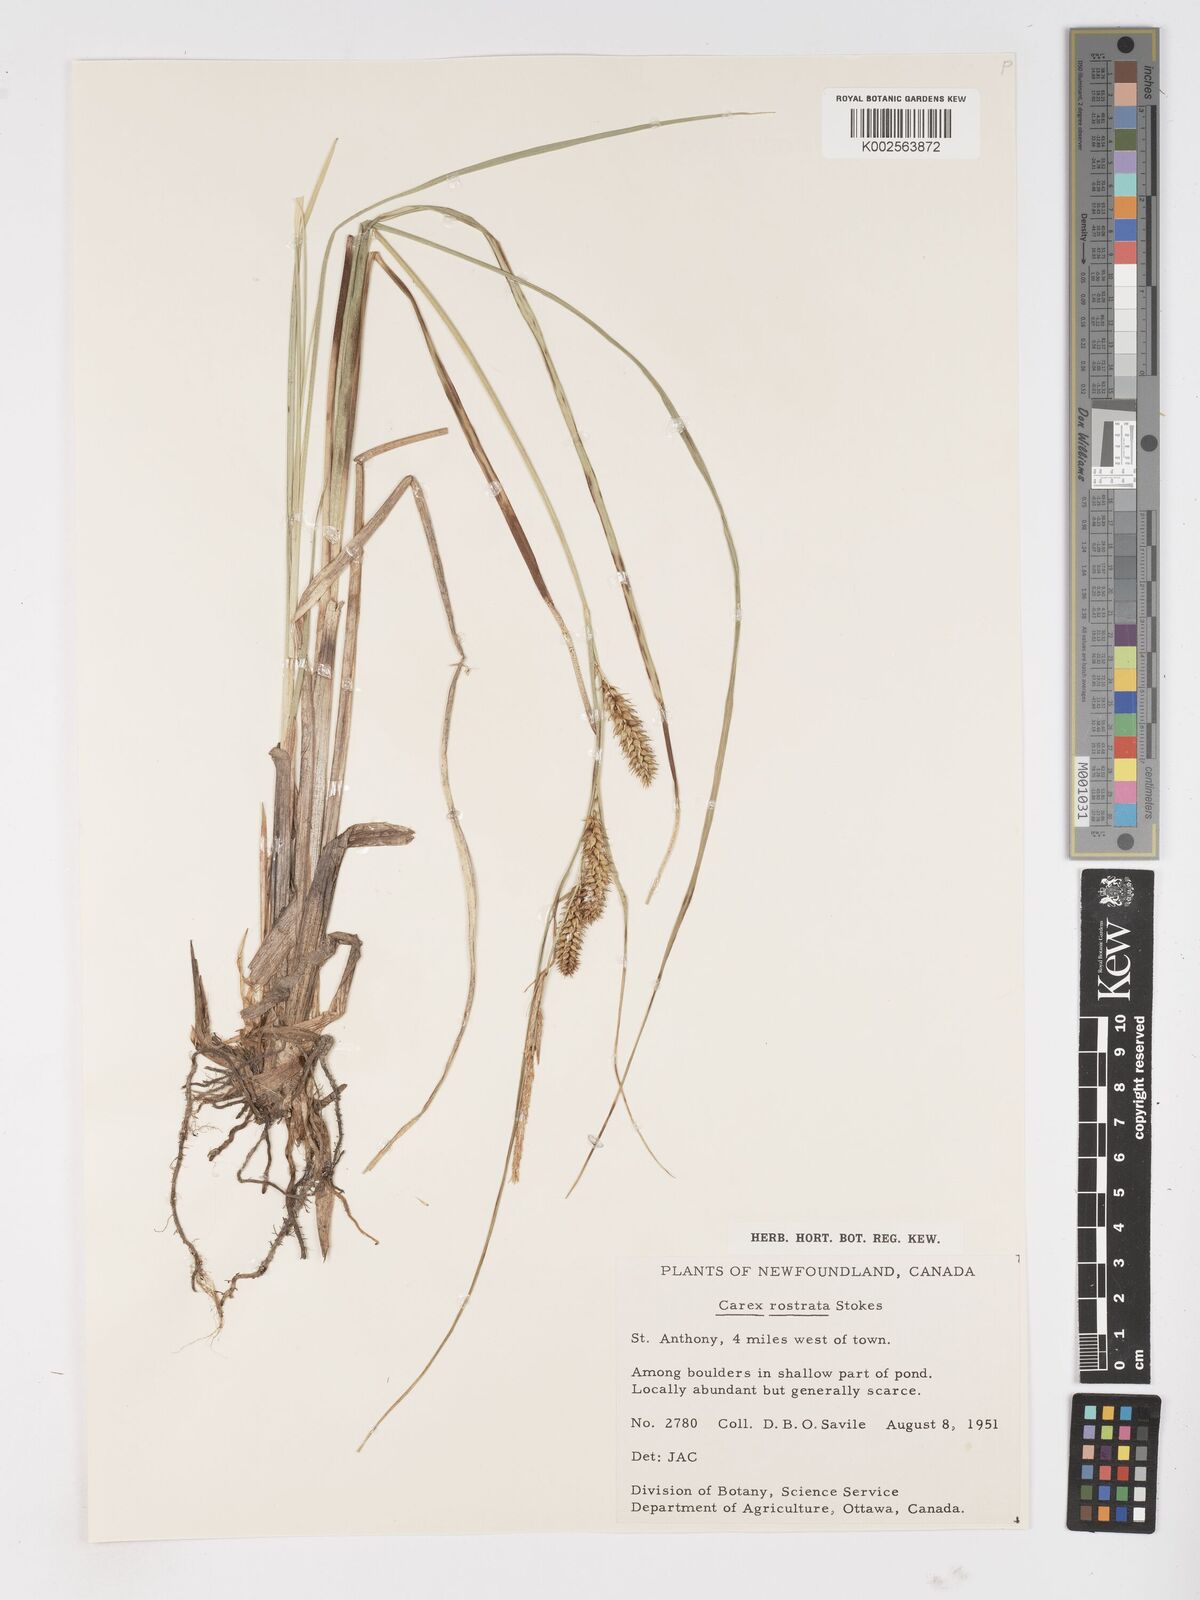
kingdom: Plantae
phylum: Tracheophyta
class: Liliopsida
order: Poales
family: Cyperaceae
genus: Carex
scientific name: Carex rostrata
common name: Bottle sedge
